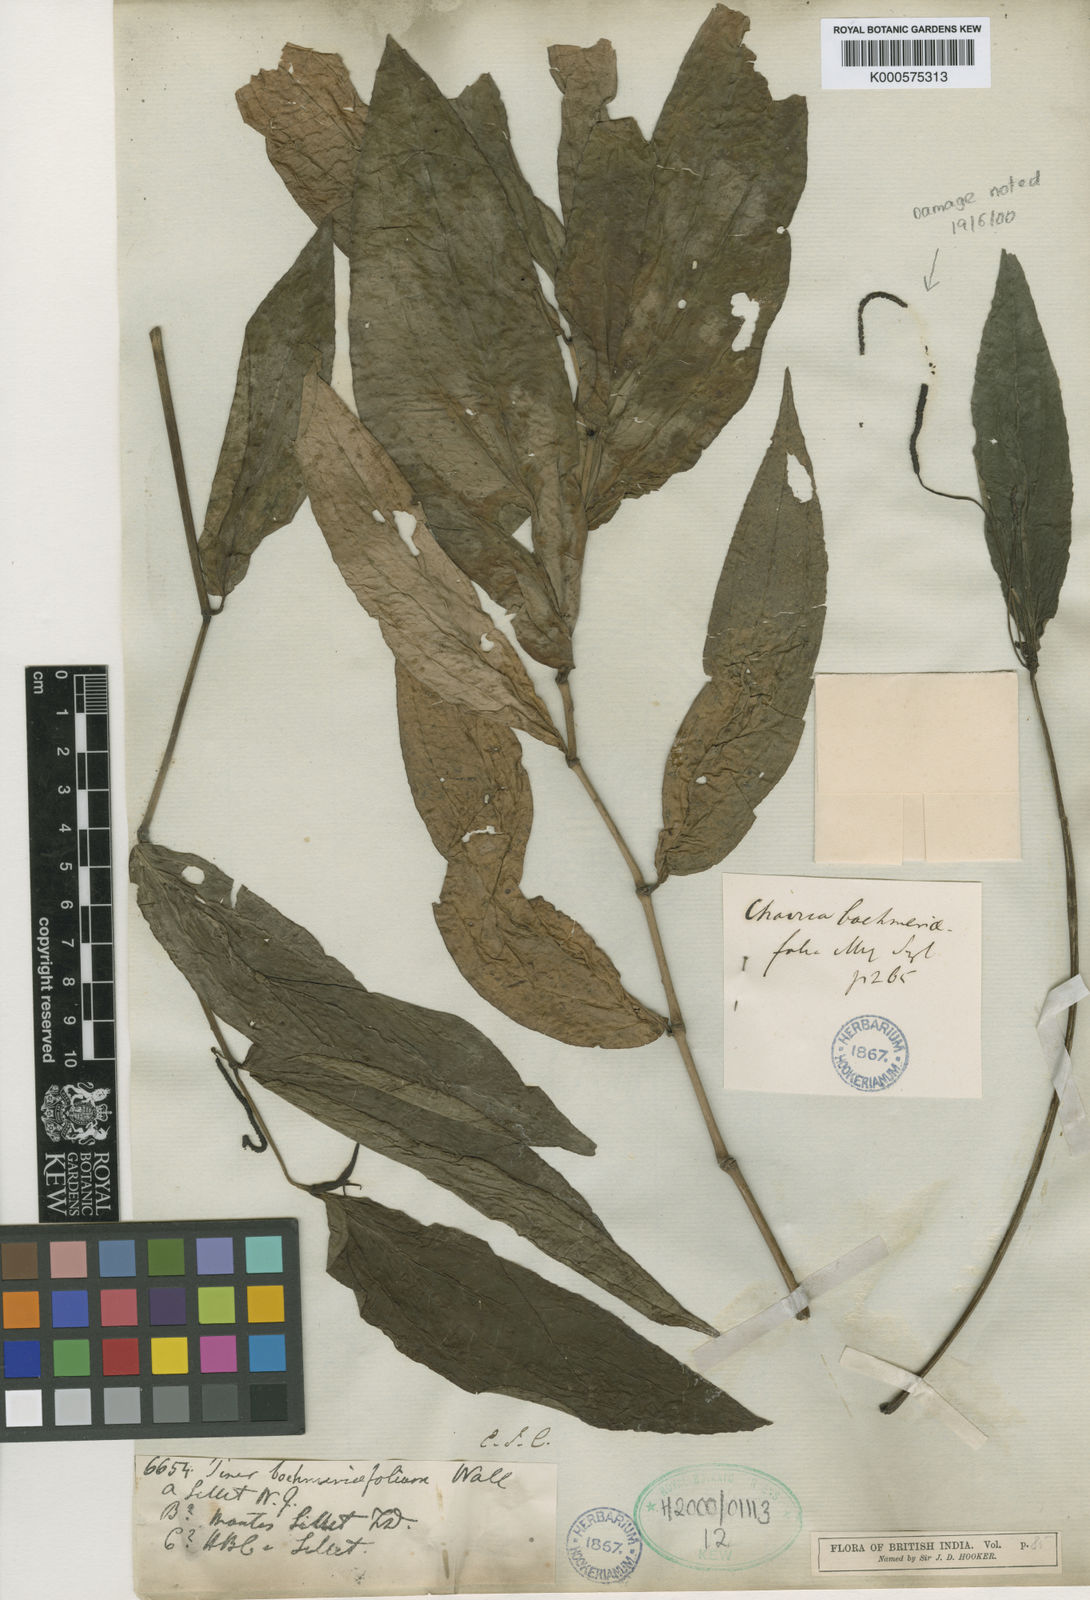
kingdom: Plantae
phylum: Tracheophyta
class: Magnoliopsida
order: Piperales
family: Piperaceae
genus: Piper
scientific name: Piper
